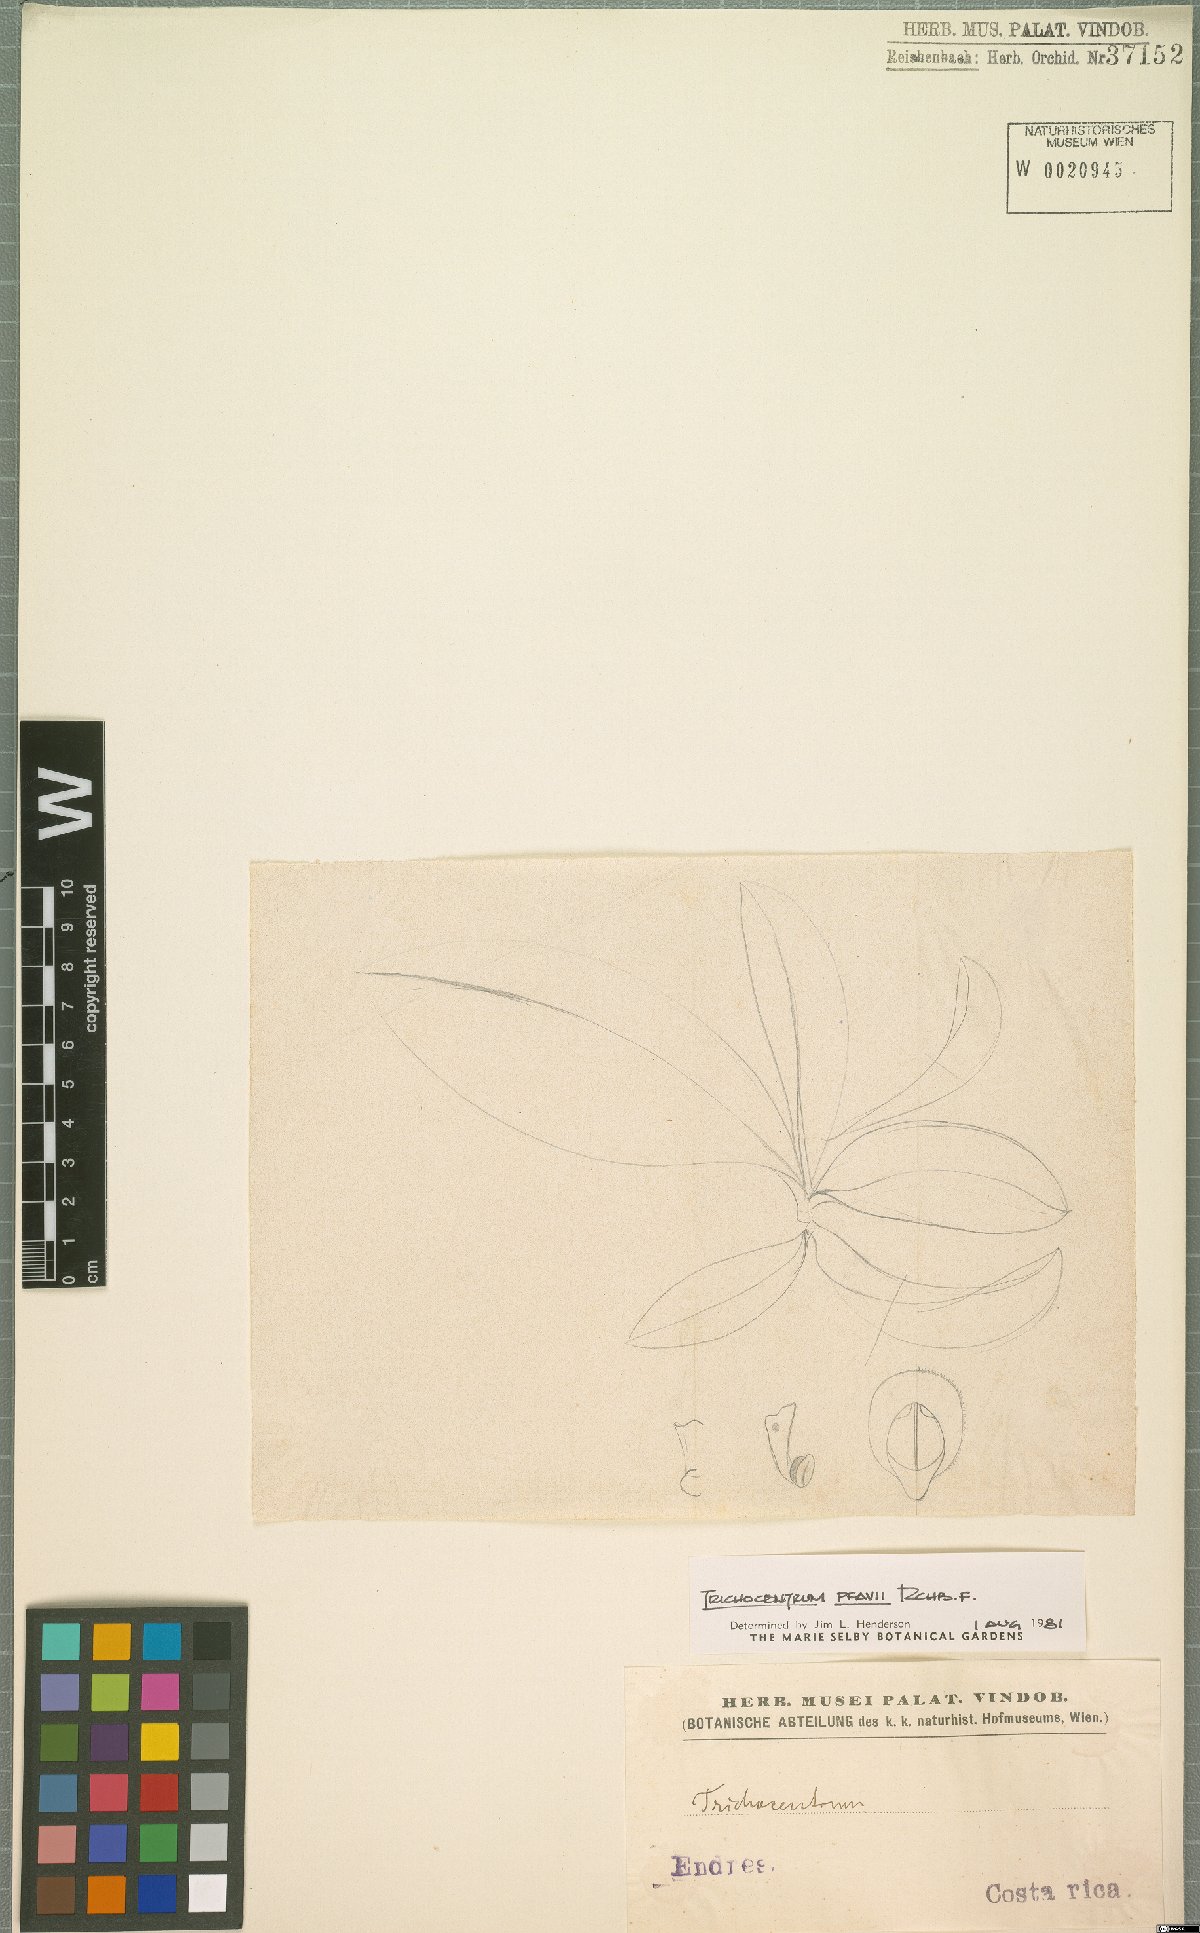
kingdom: Plantae
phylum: Tracheophyta
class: Liliopsida
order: Asparagales
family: Orchidaceae
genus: Trichocentrum
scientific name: Trichocentrum pfavii
